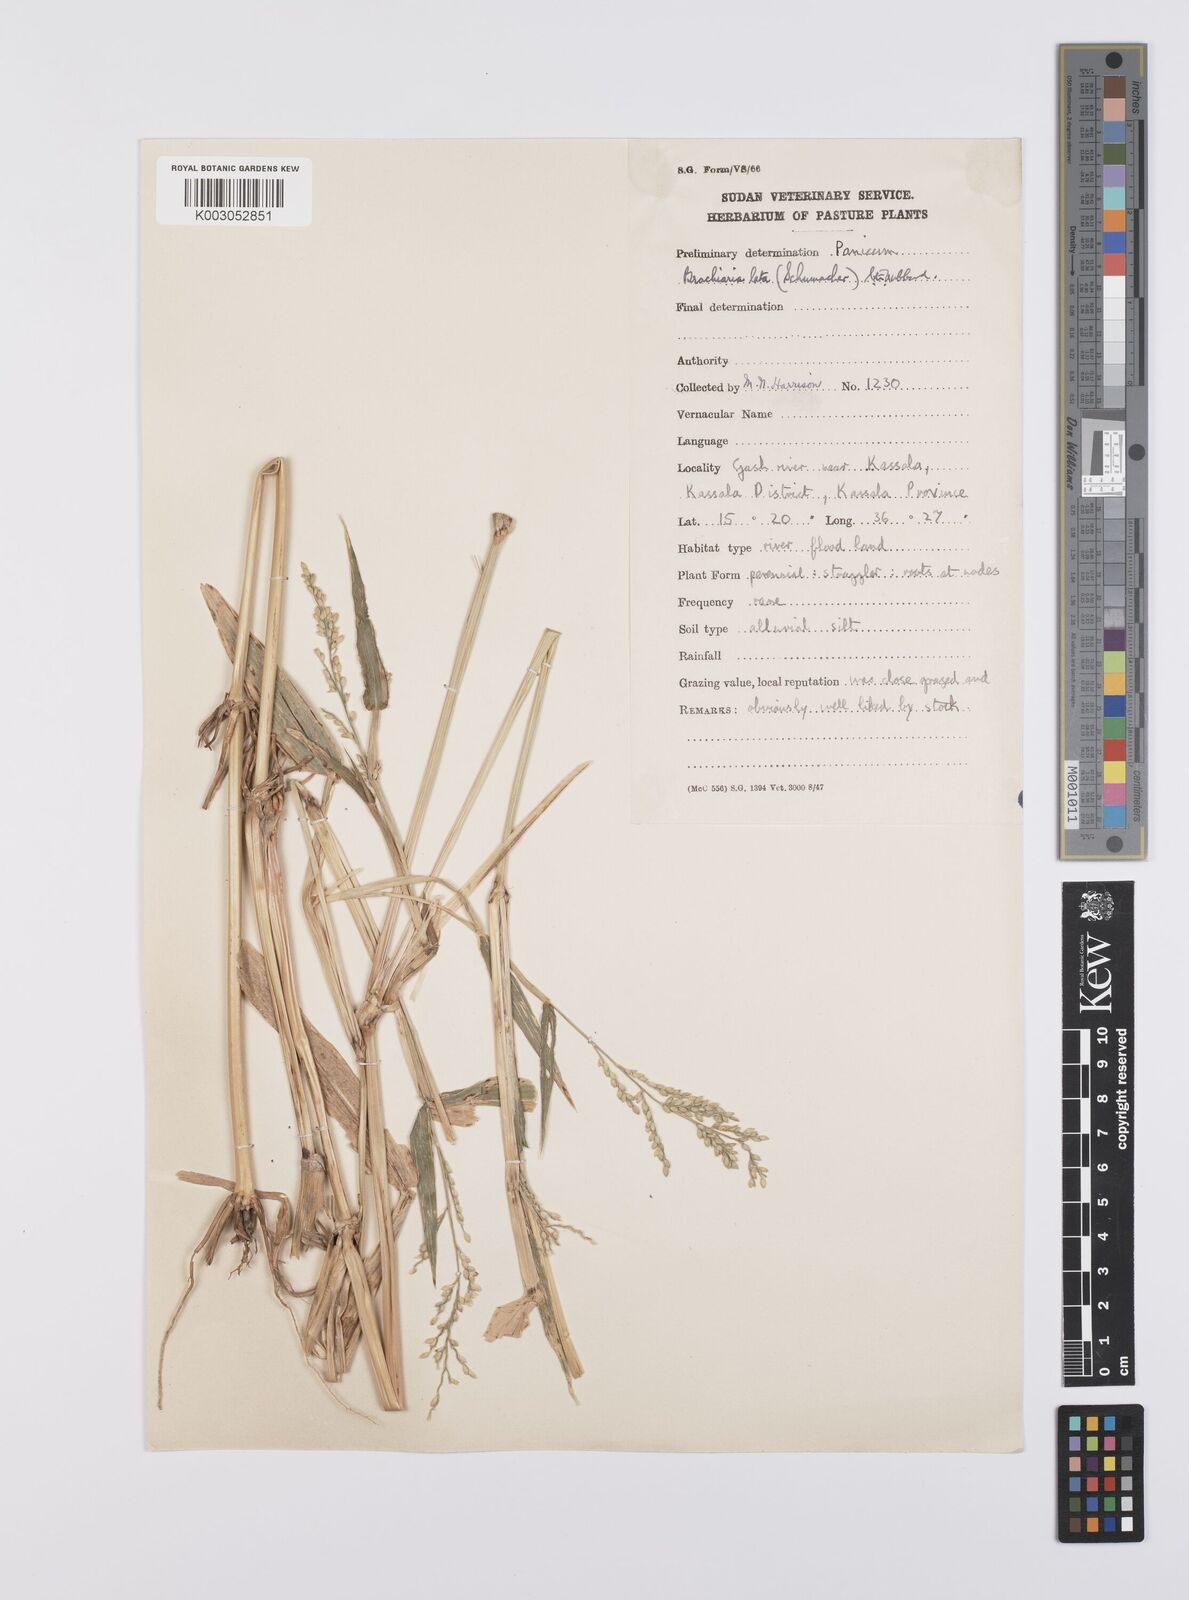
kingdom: Plantae
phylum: Tracheophyta
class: Liliopsida
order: Poales
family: Poaceae
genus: Urochloa
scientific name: Urochloa lata
